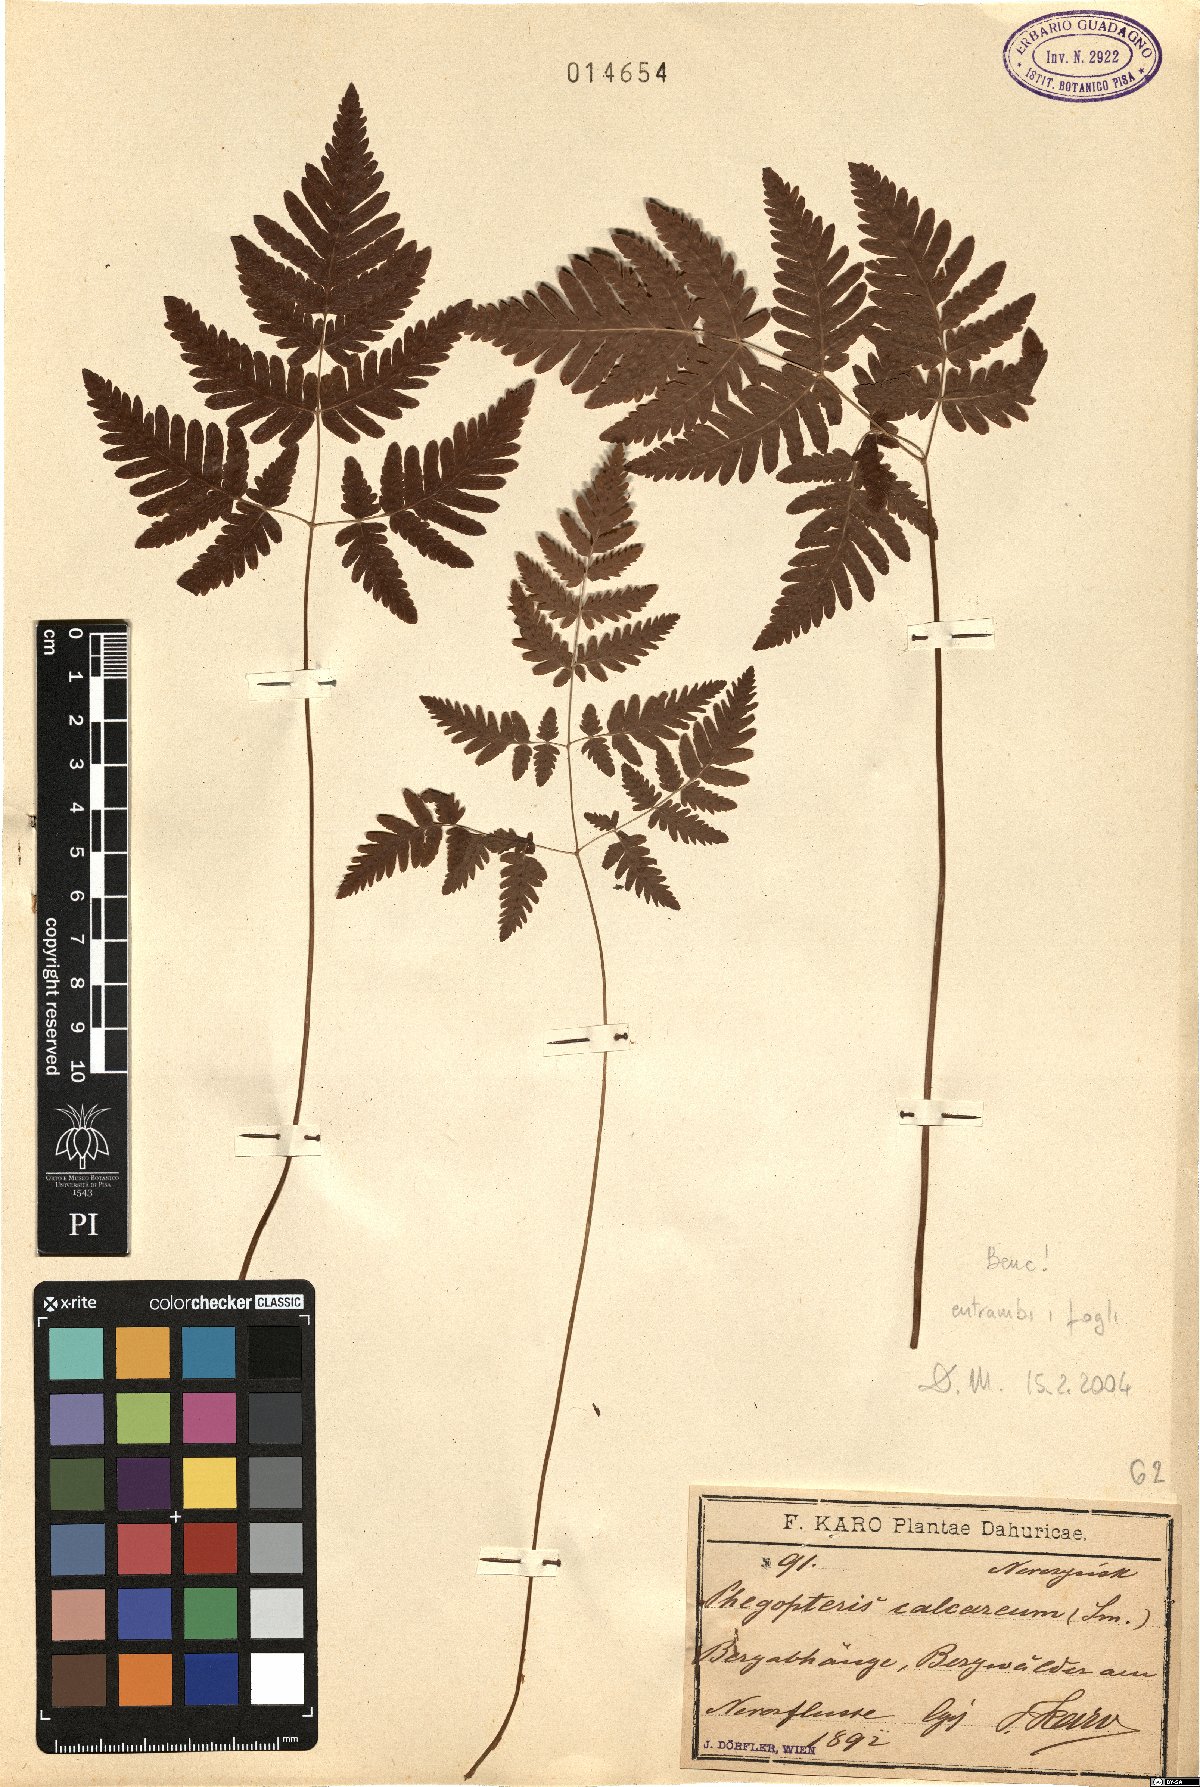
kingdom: Plantae
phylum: Tracheophyta
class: Polypodiopsida
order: Polypodiales
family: Cystopteridaceae
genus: Gymnocarpium
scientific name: Gymnocarpium robertianum
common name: Limestone fern
